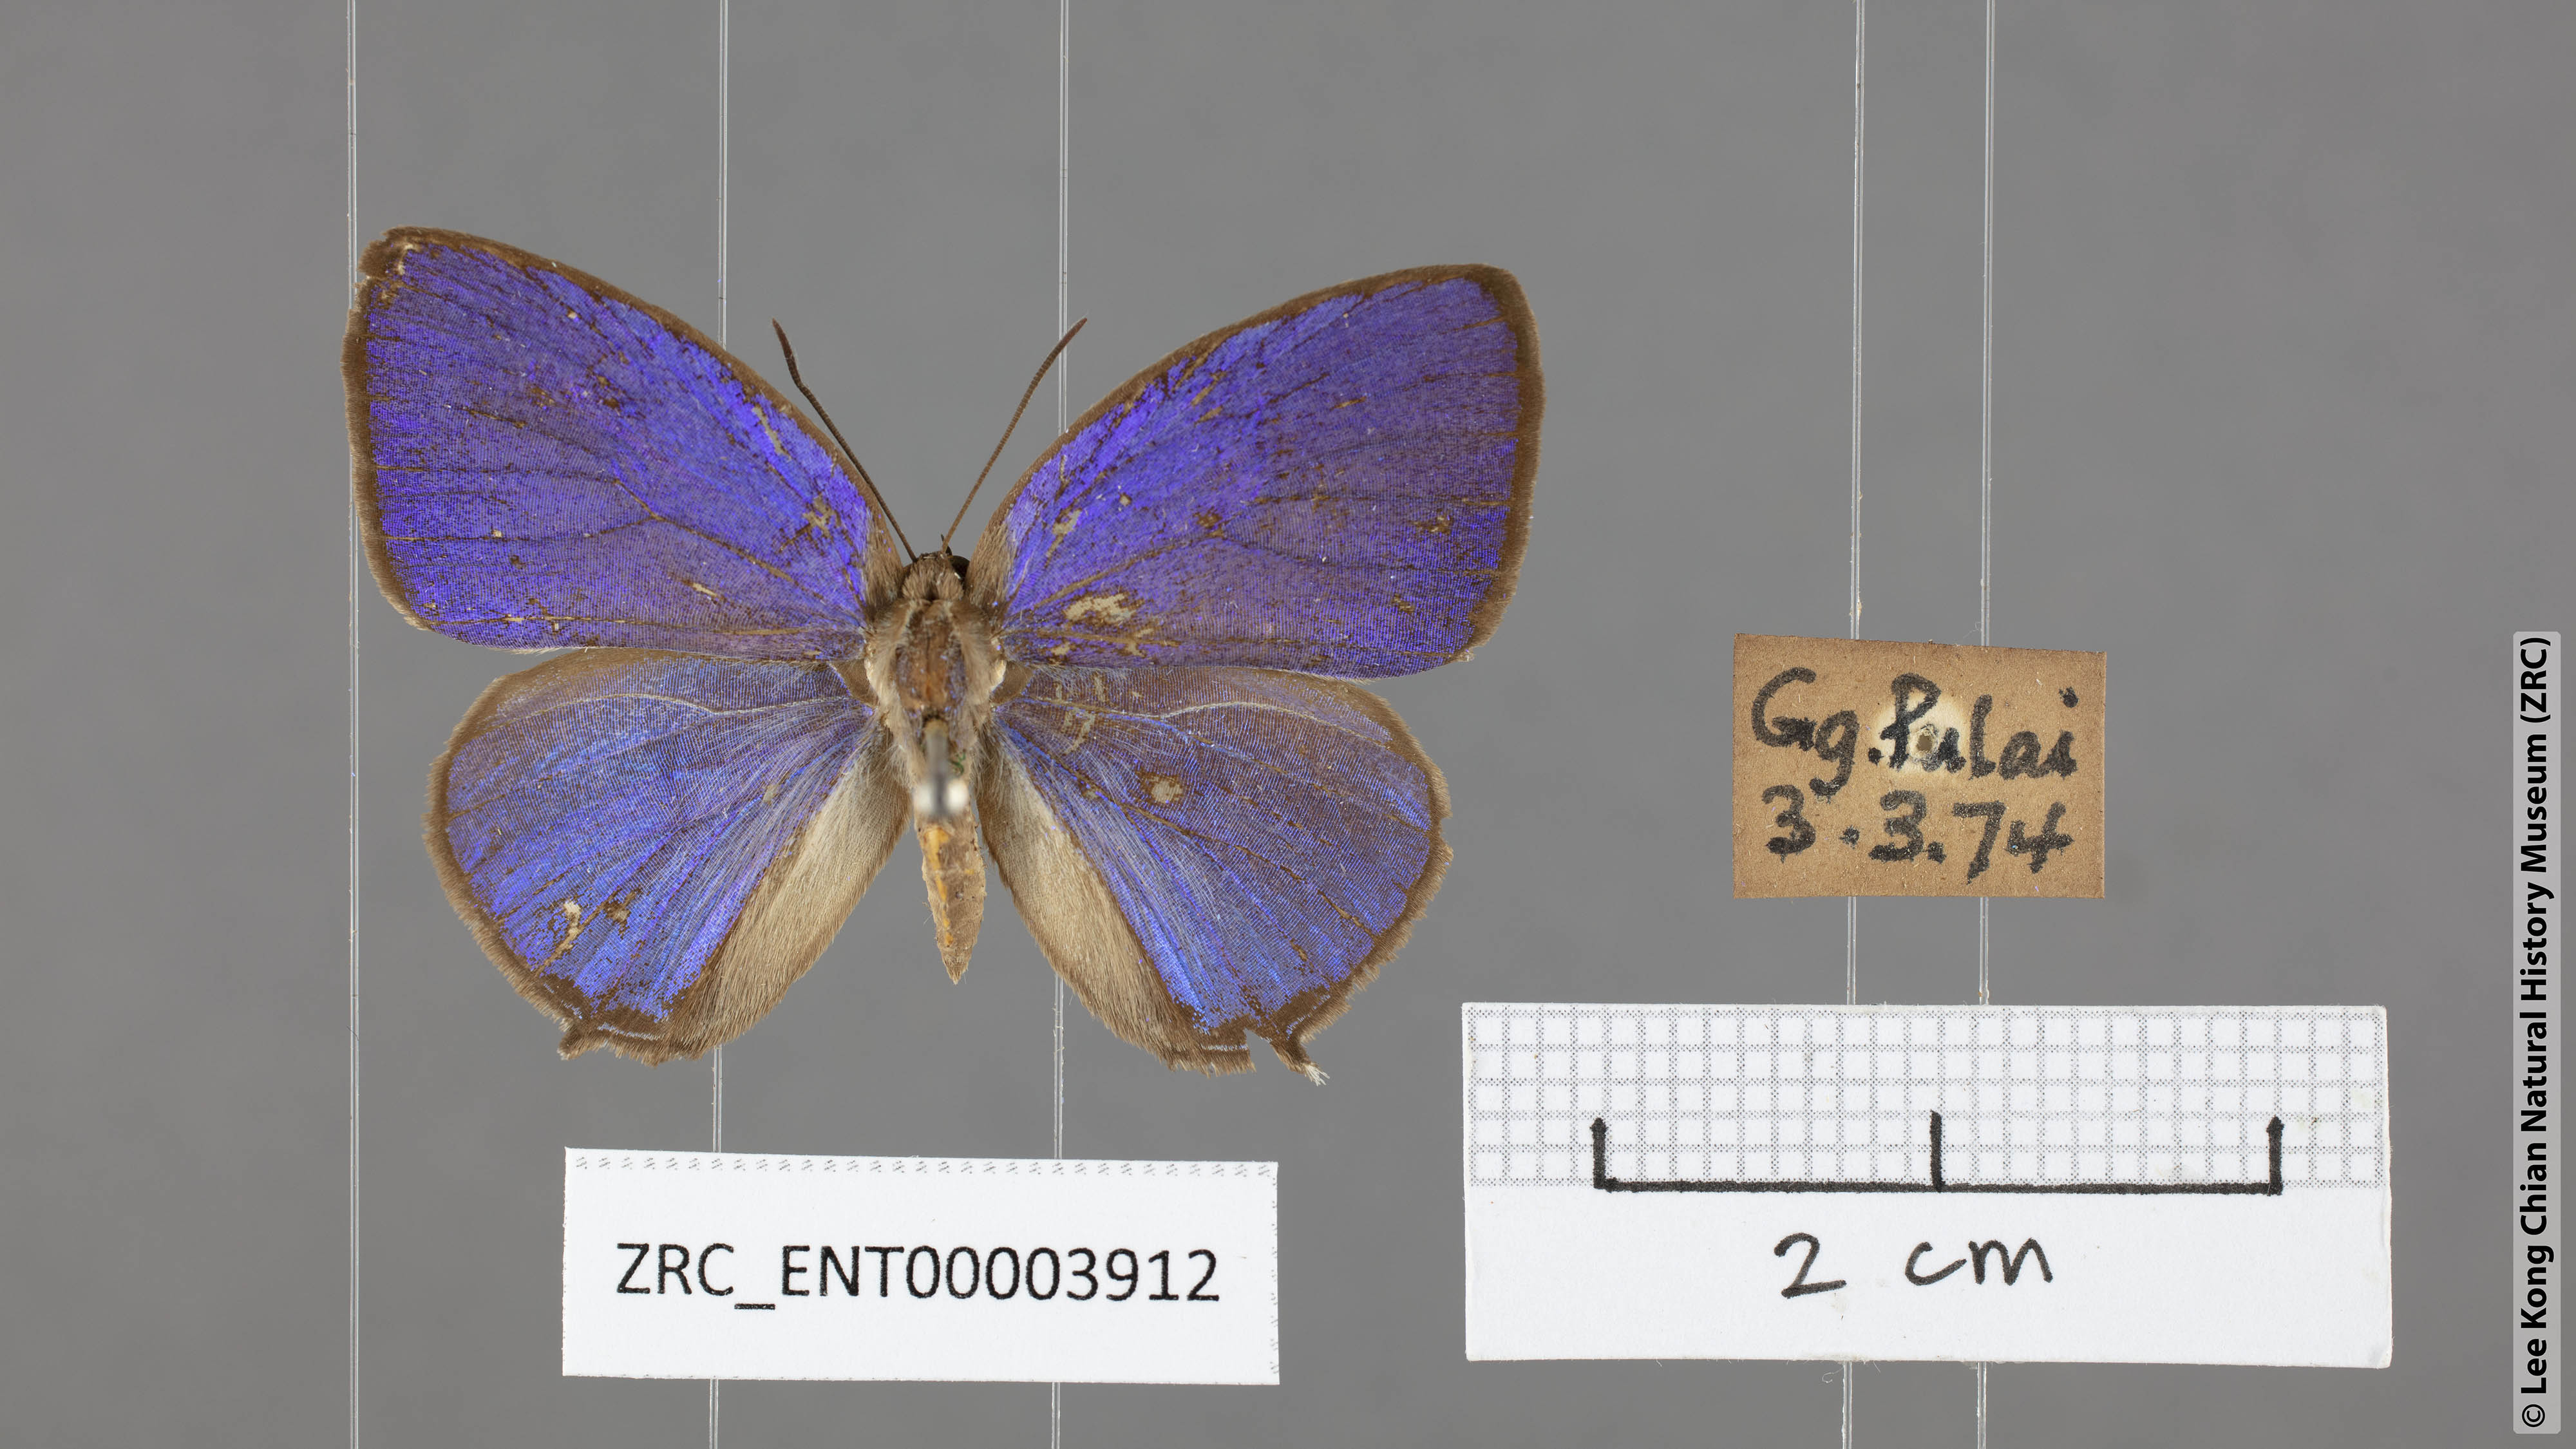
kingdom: Animalia
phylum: Arthropoda
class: Insecta
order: Lepidoptera
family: Lycaenidae
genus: Arhopala
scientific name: Arhopala democritus
